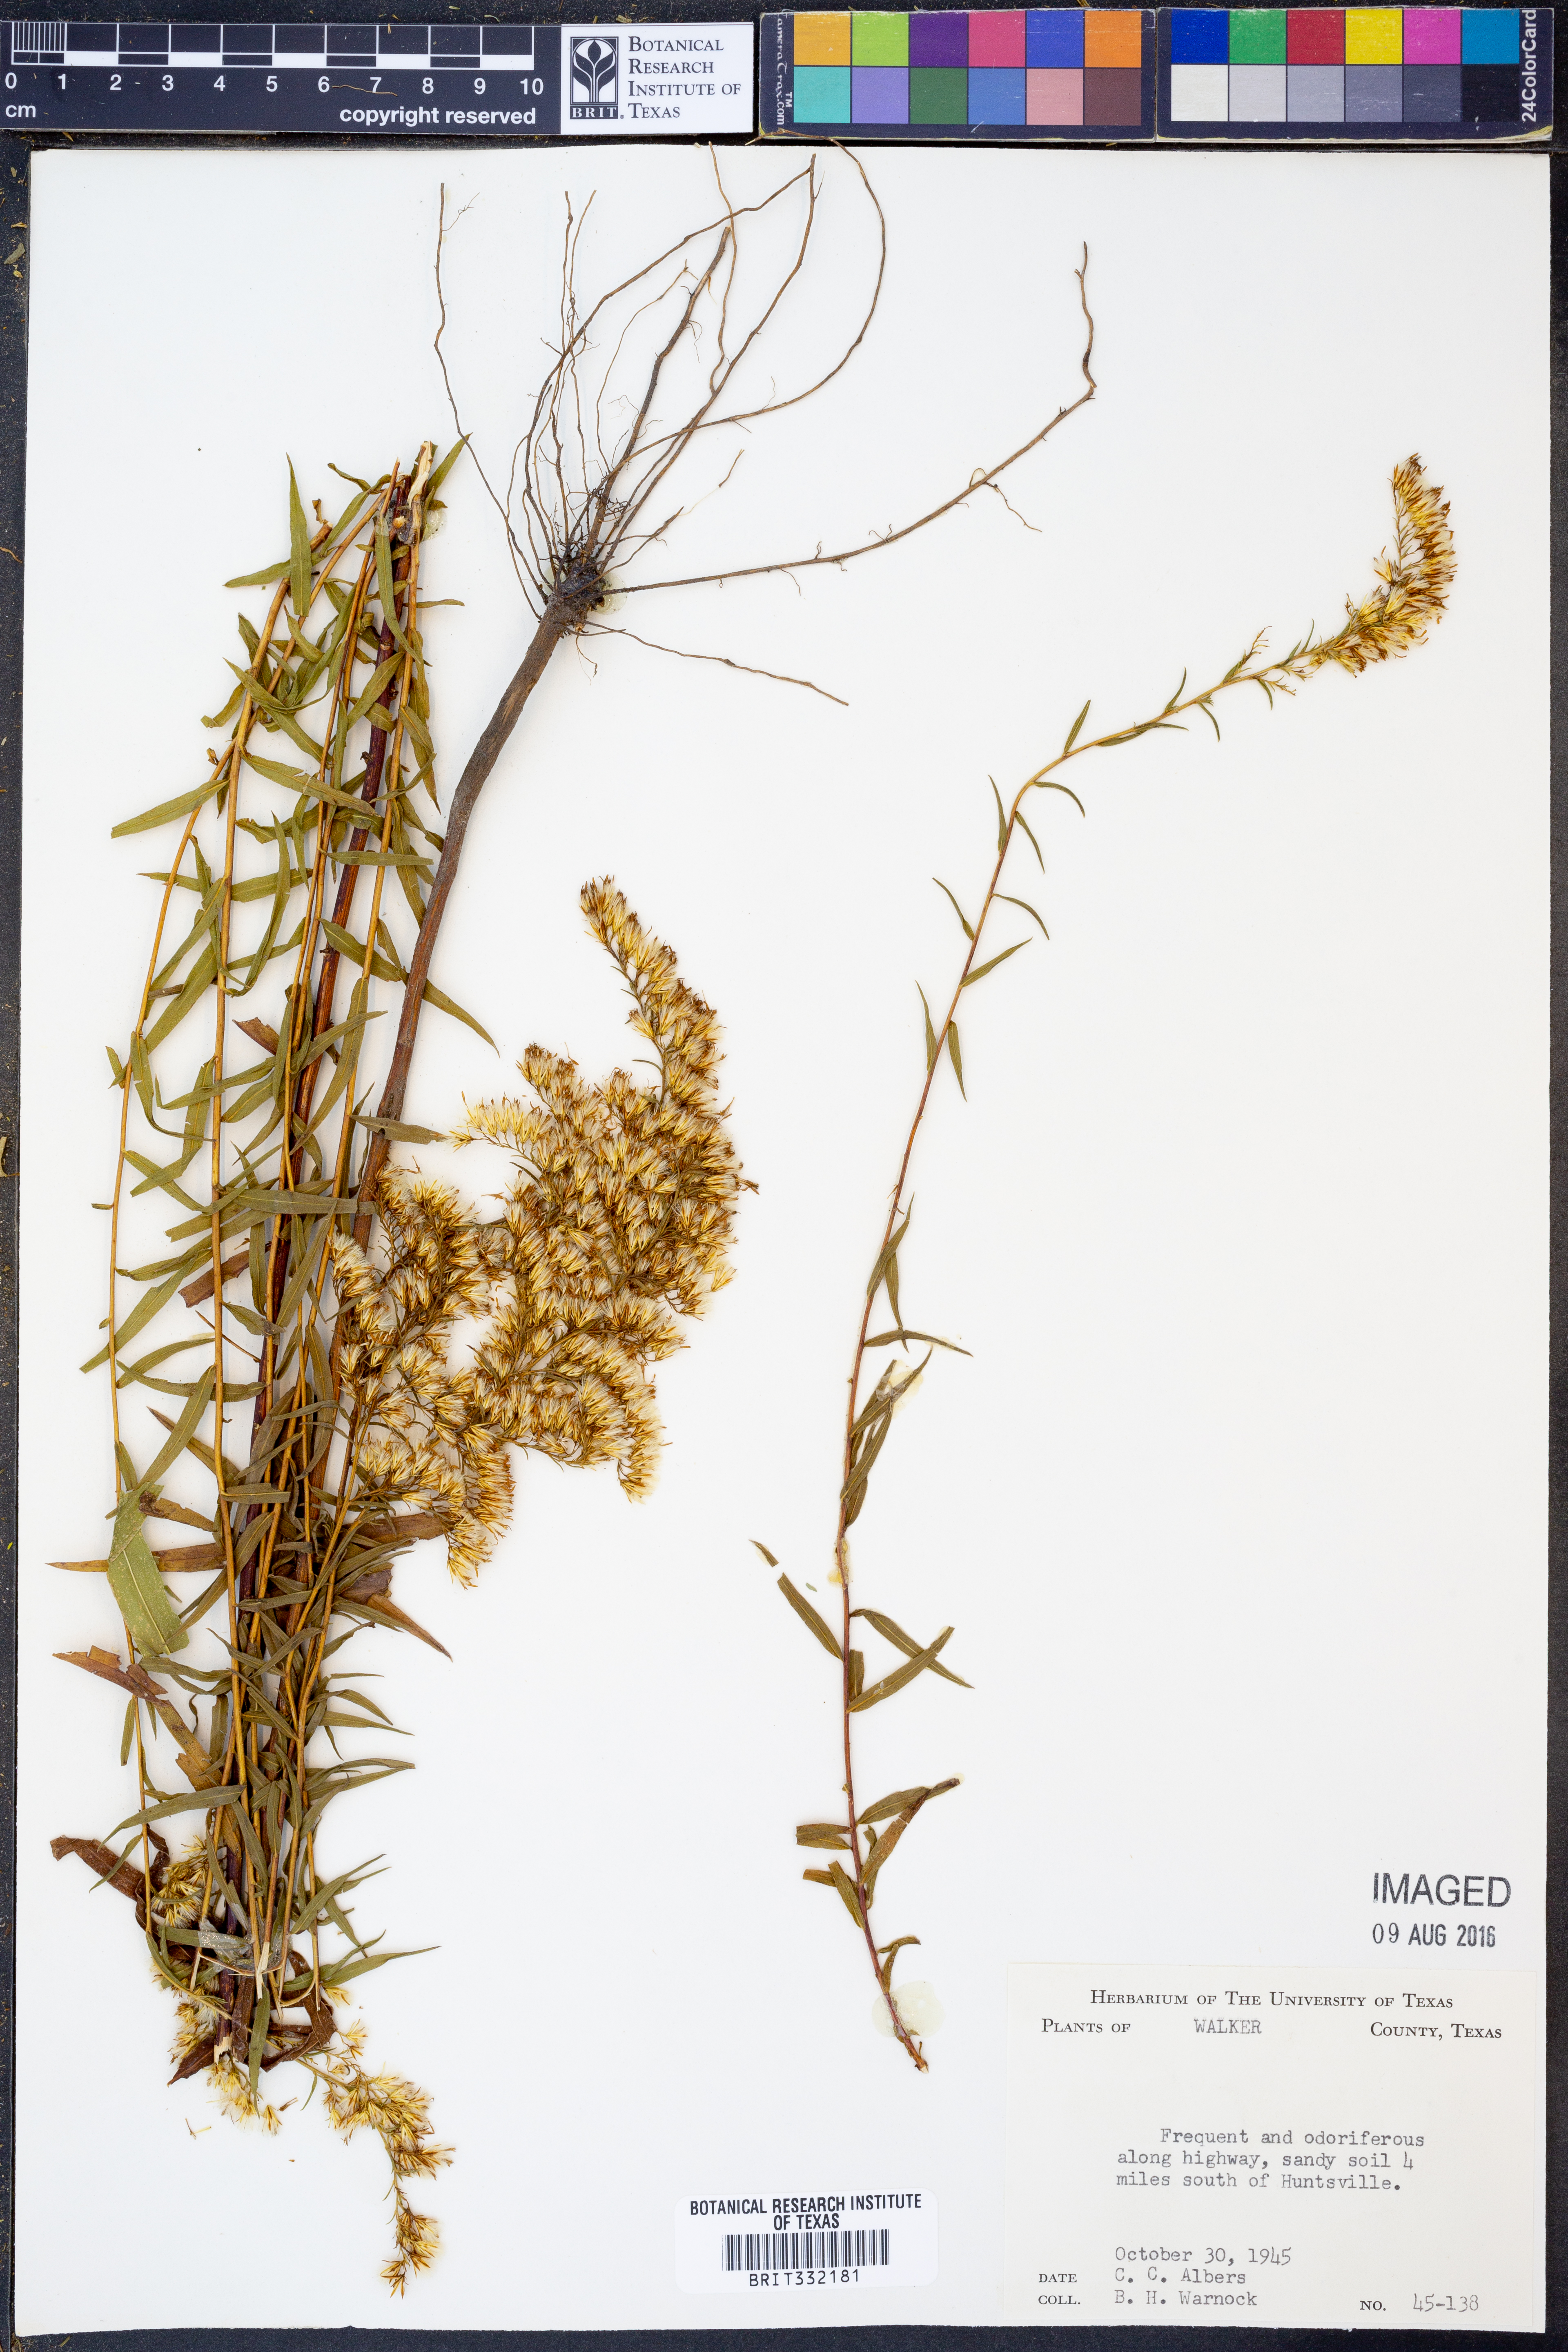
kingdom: Plantae
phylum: Tracheophyta
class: Magnoliopsida
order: Asterales
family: Asteraceae
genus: Solidago
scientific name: Solidago odora
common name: Anise-scented goldenrod
